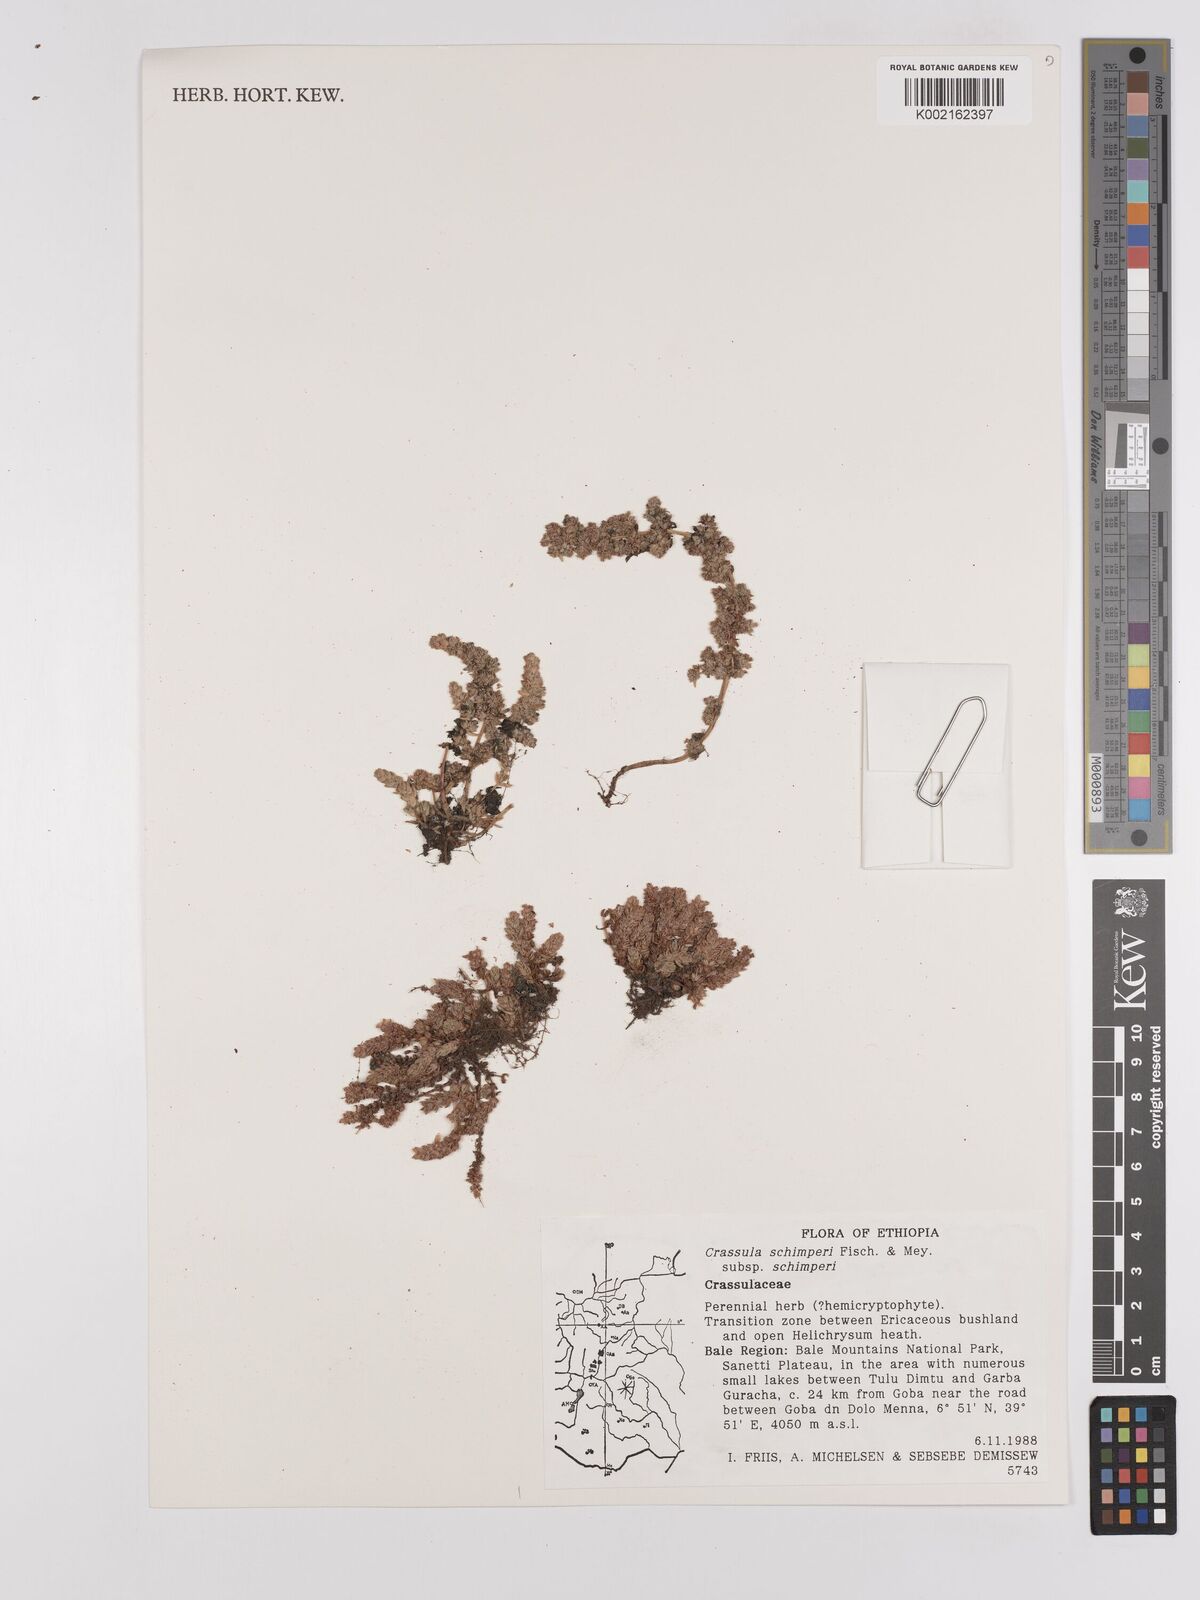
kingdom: Plantae
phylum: Tracheophyta
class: Magnoliopsida
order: Saxifragales
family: Crassulaceae
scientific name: Crassulaceae
